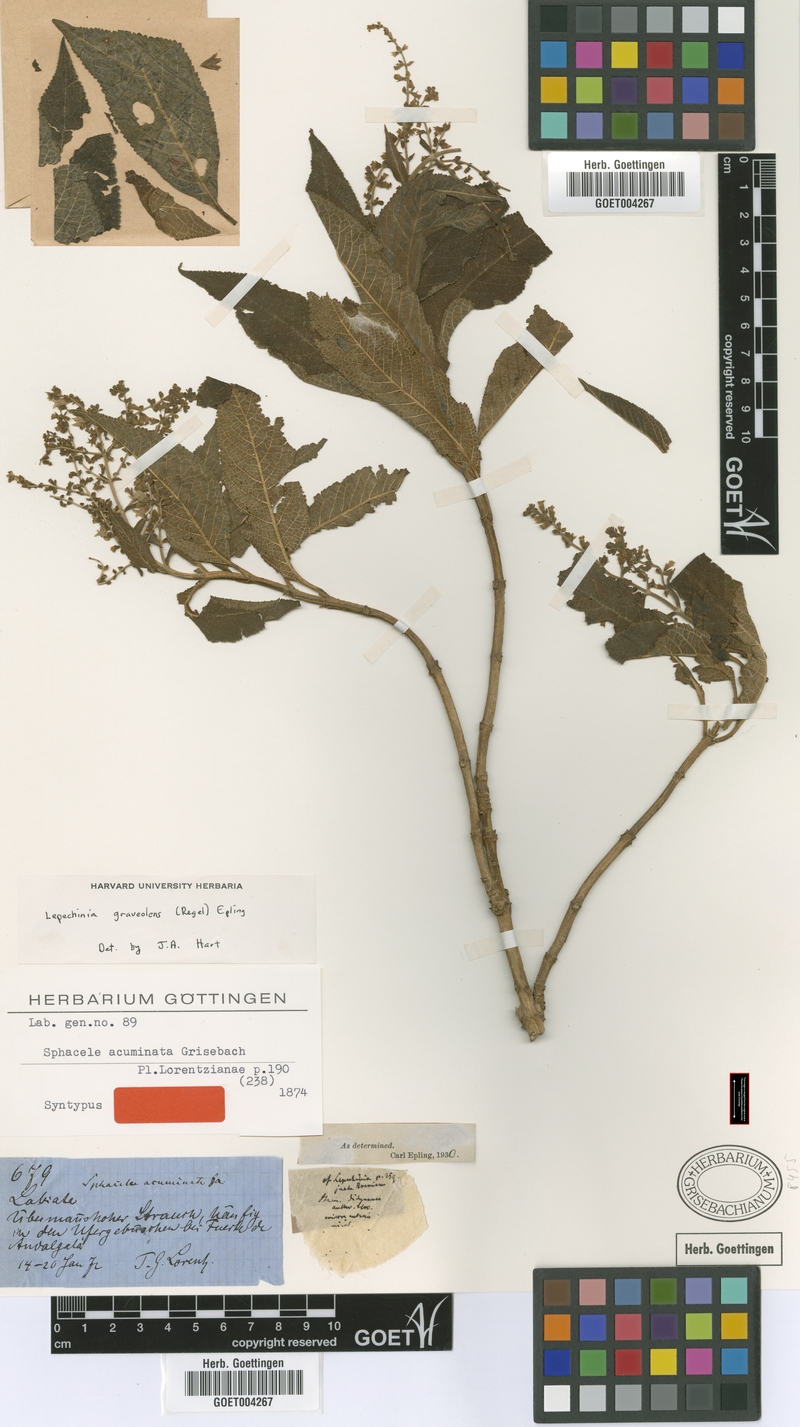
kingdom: Plantae
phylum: Tracheophyta
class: Magnoliopsida
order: Lamiales
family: Lamiaceae
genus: Lepechinia
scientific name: Lepechinia graveolens
